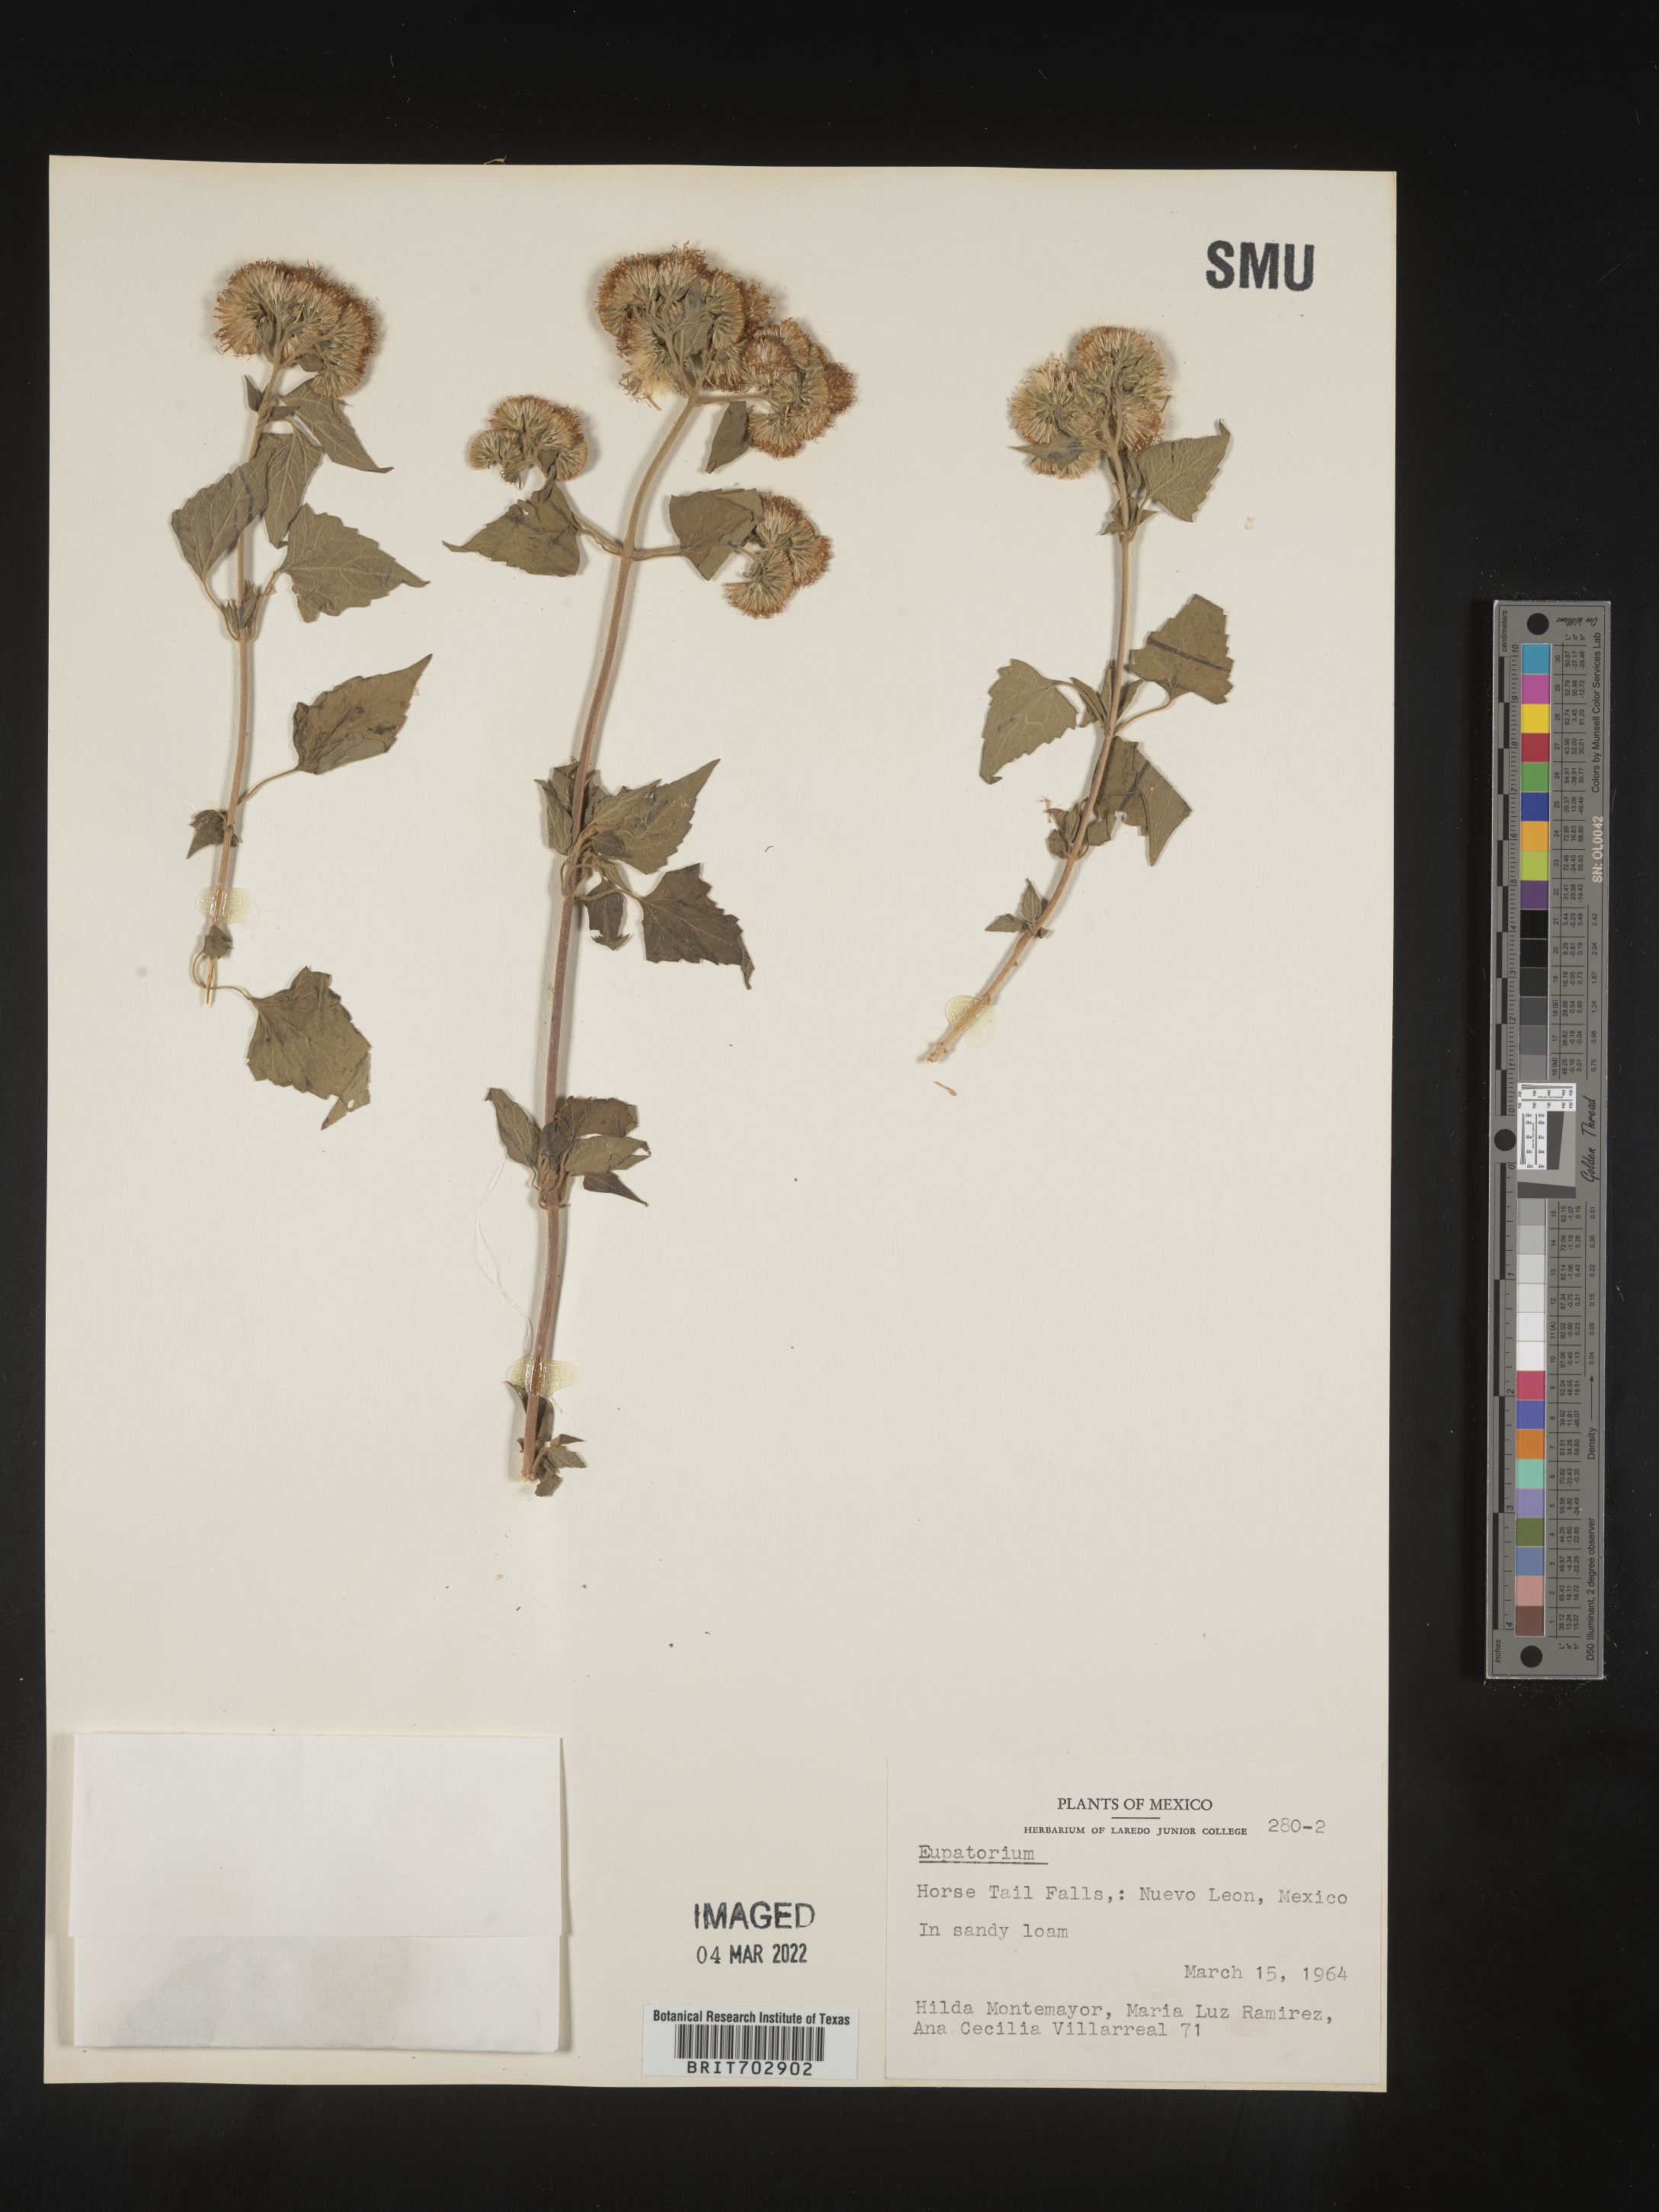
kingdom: Plantae
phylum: Tracheophyta
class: Magnoliopsida
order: Asterales
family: Asteraceae
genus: Eupatorium
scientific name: Eupatorium
